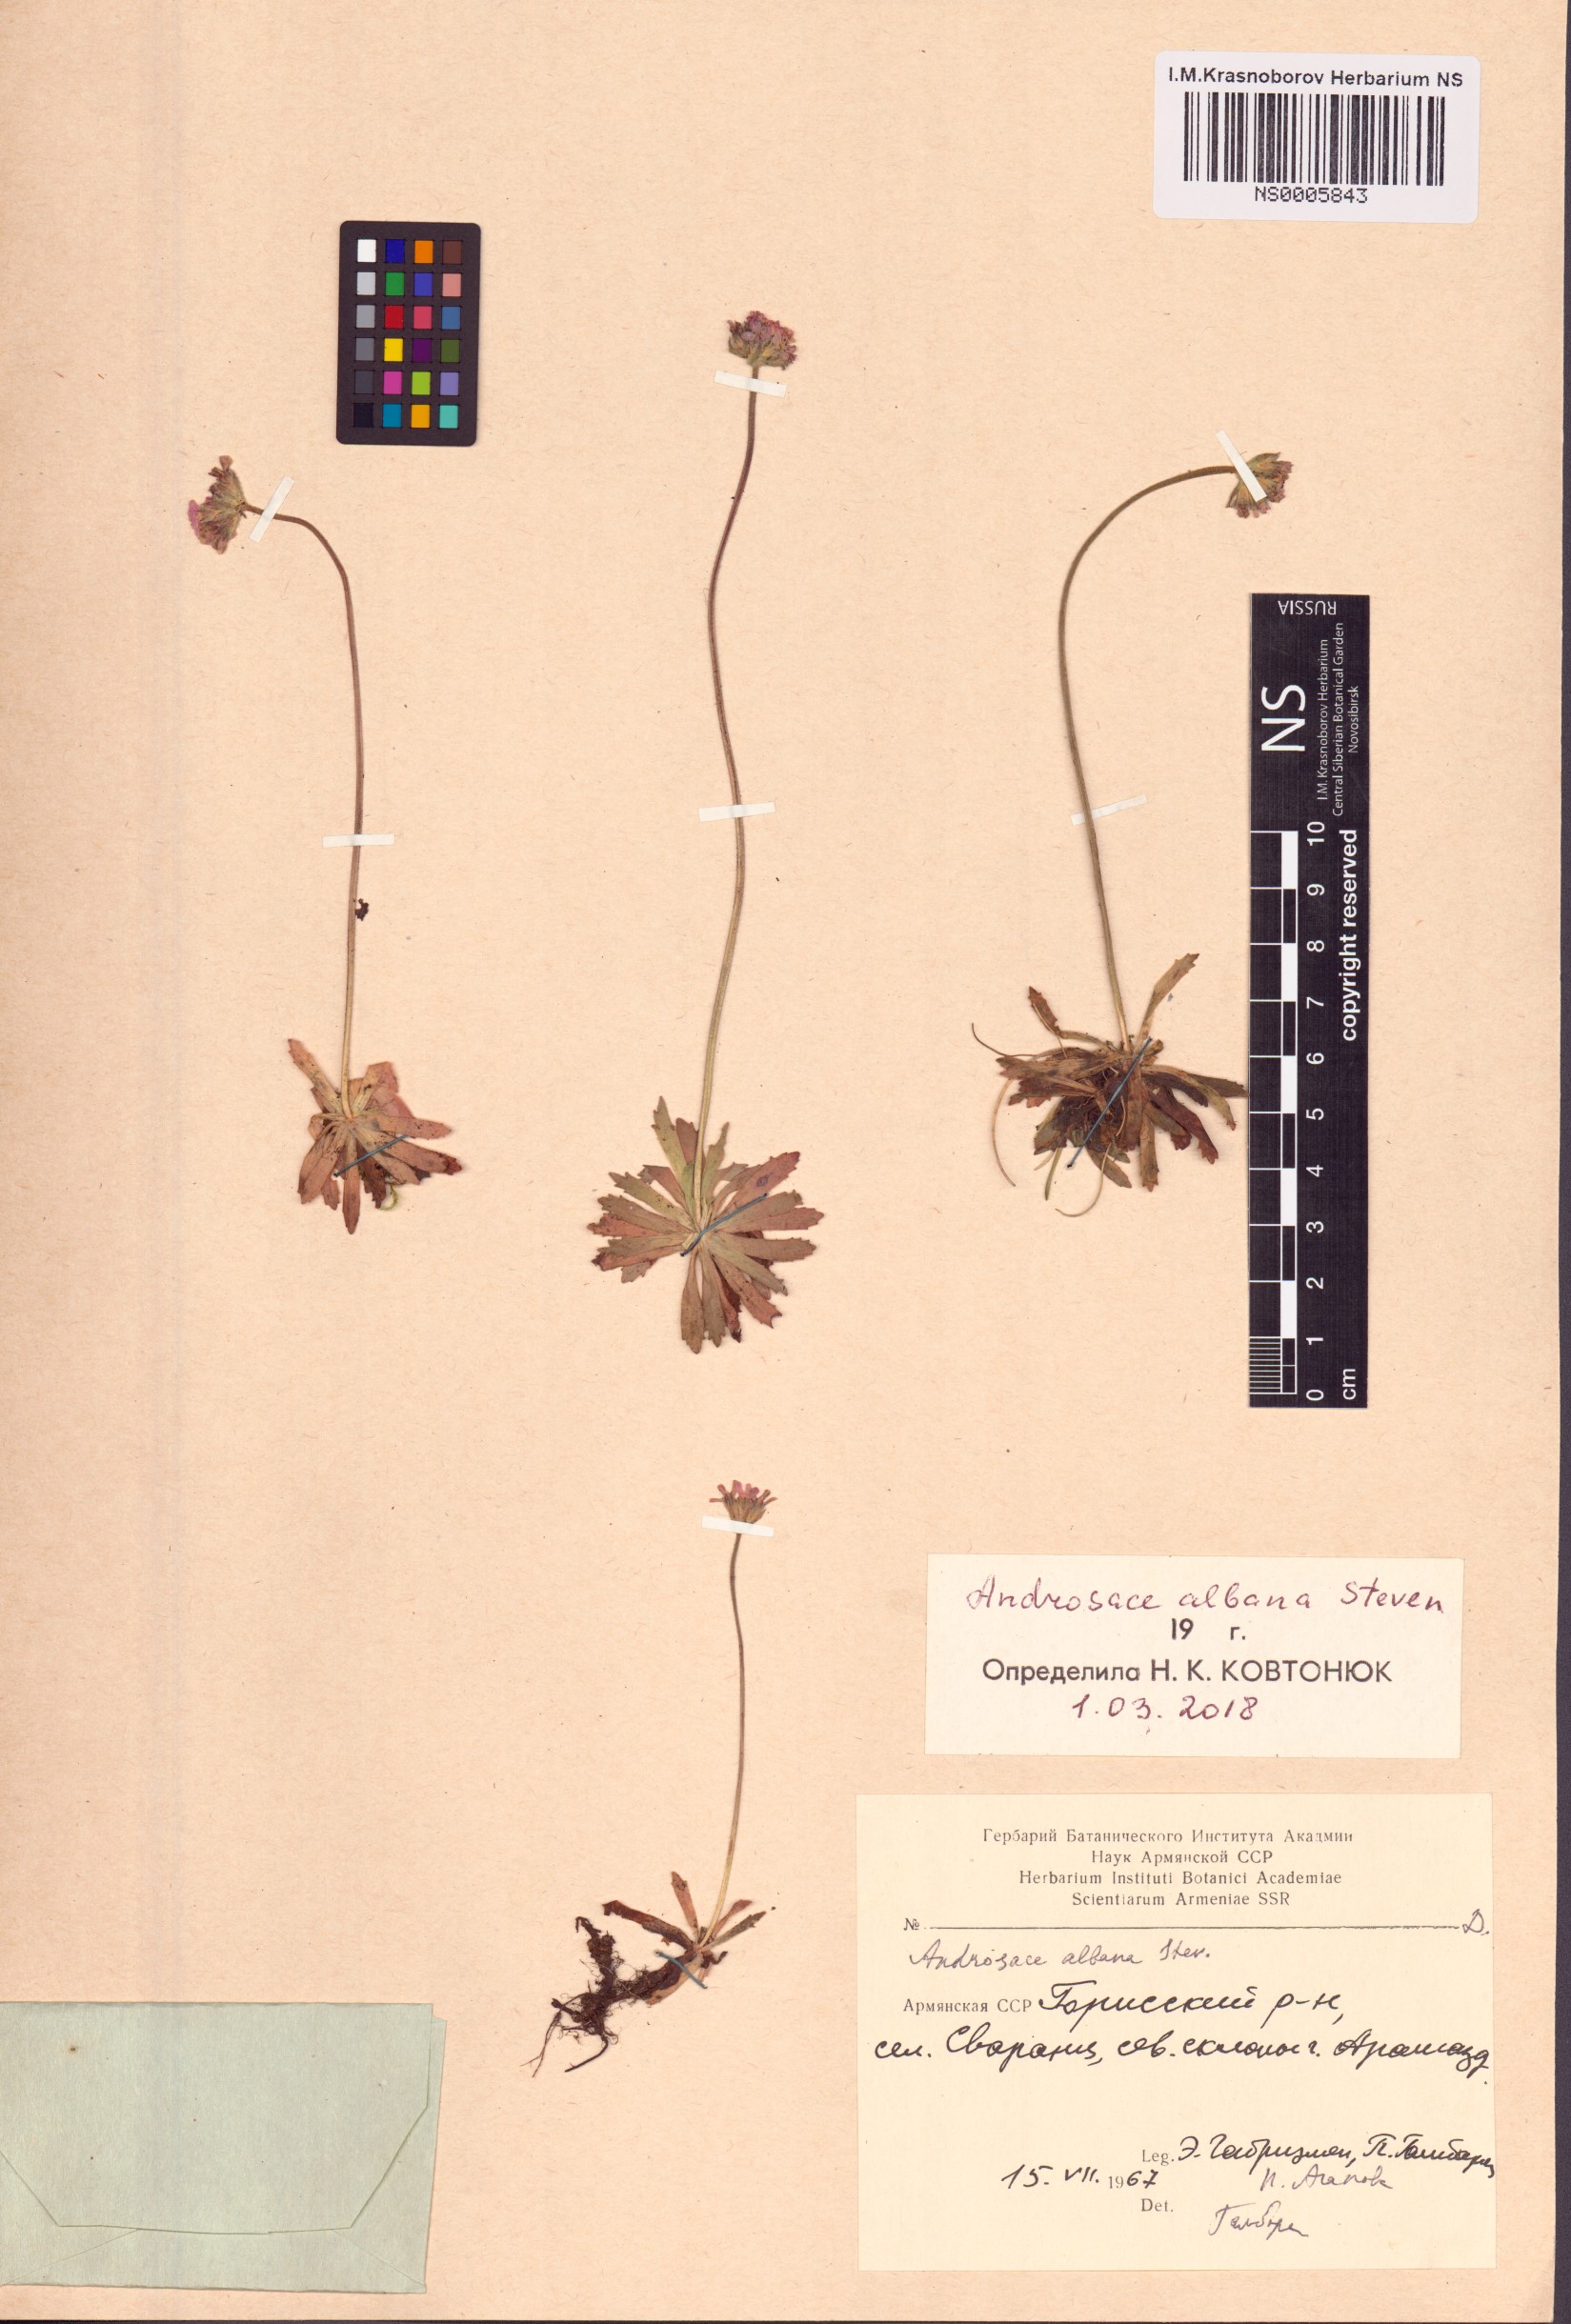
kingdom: Plantae
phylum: Tracheophyta
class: Magnoliopsida
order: Ericales
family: Primulaceae
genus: Androsace
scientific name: Androsace albana
